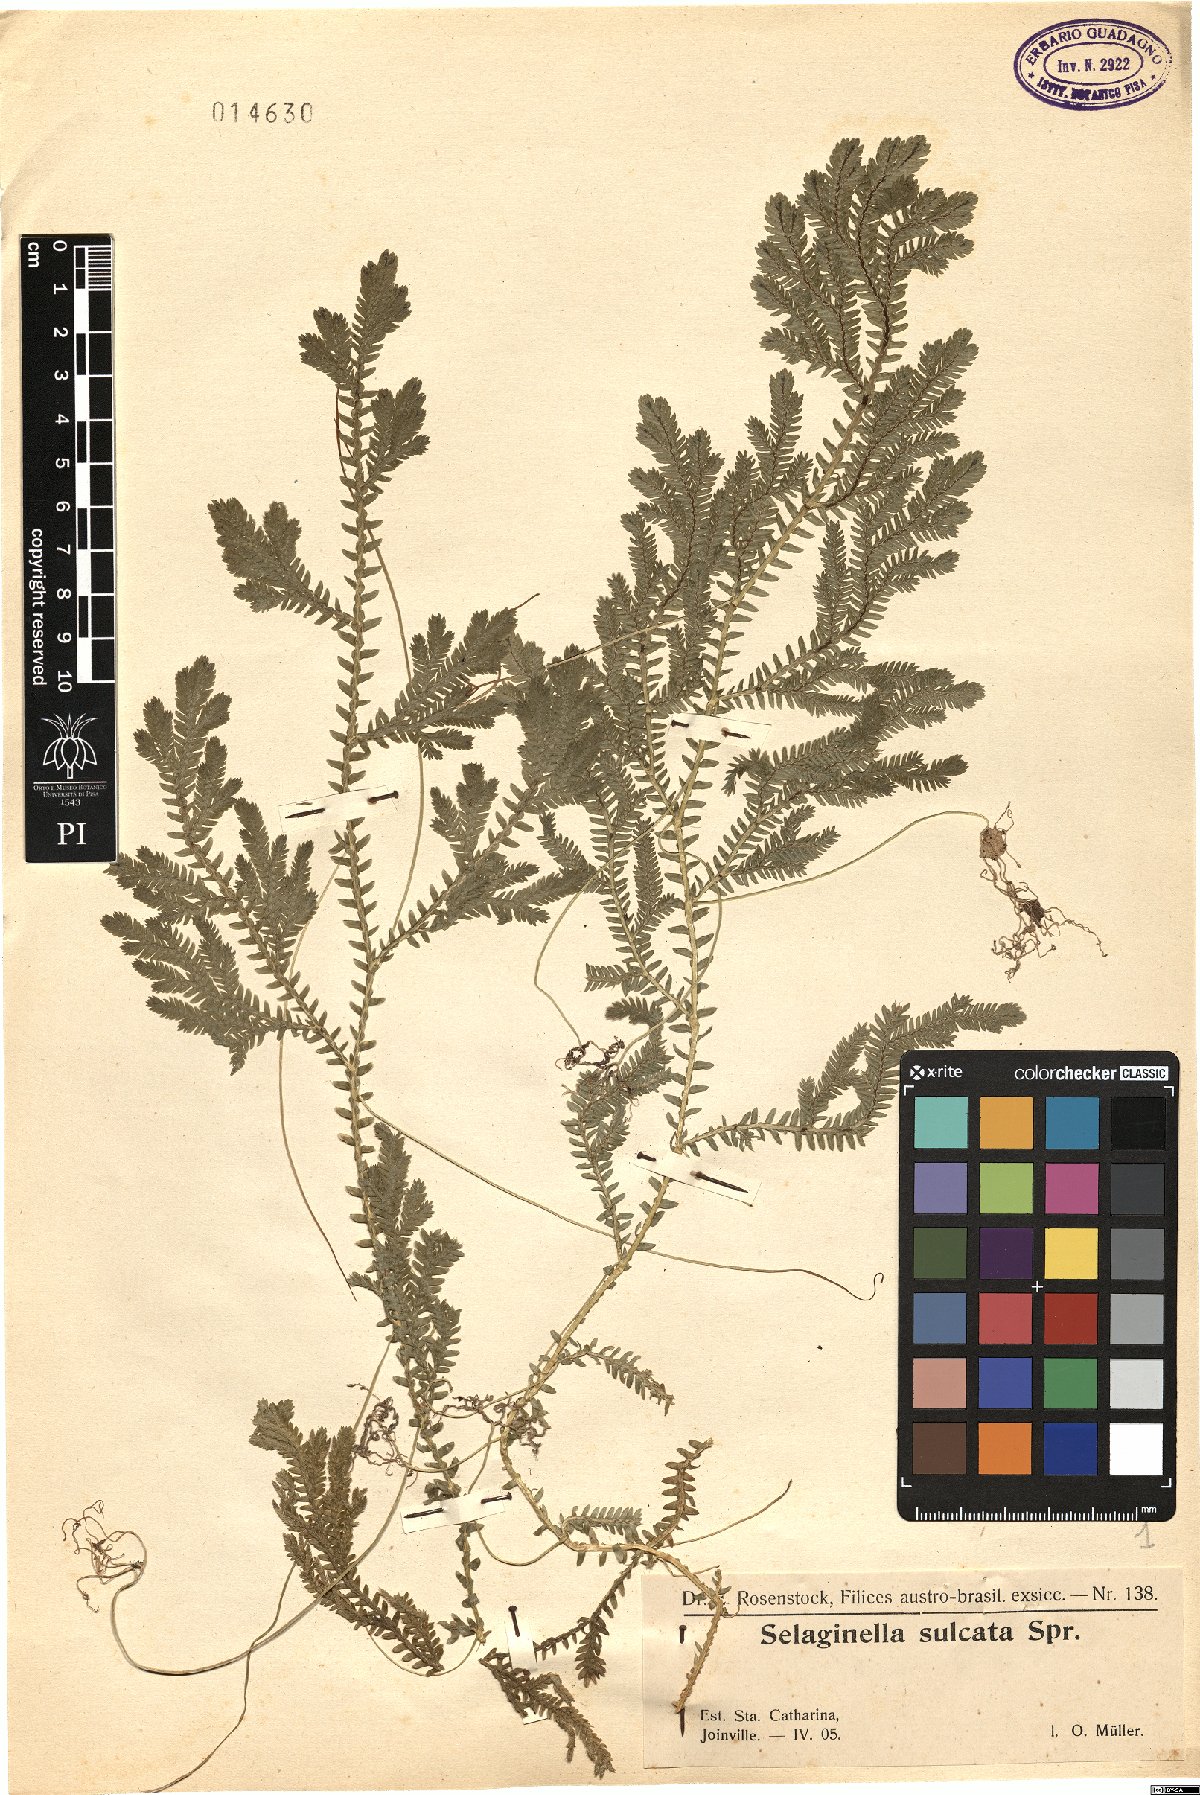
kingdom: Plantae
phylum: Tracheophyta
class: Lycopodiopsida
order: Selaginellales
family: Selaginellaceae
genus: Selaginella
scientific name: Selaginella sulcata
